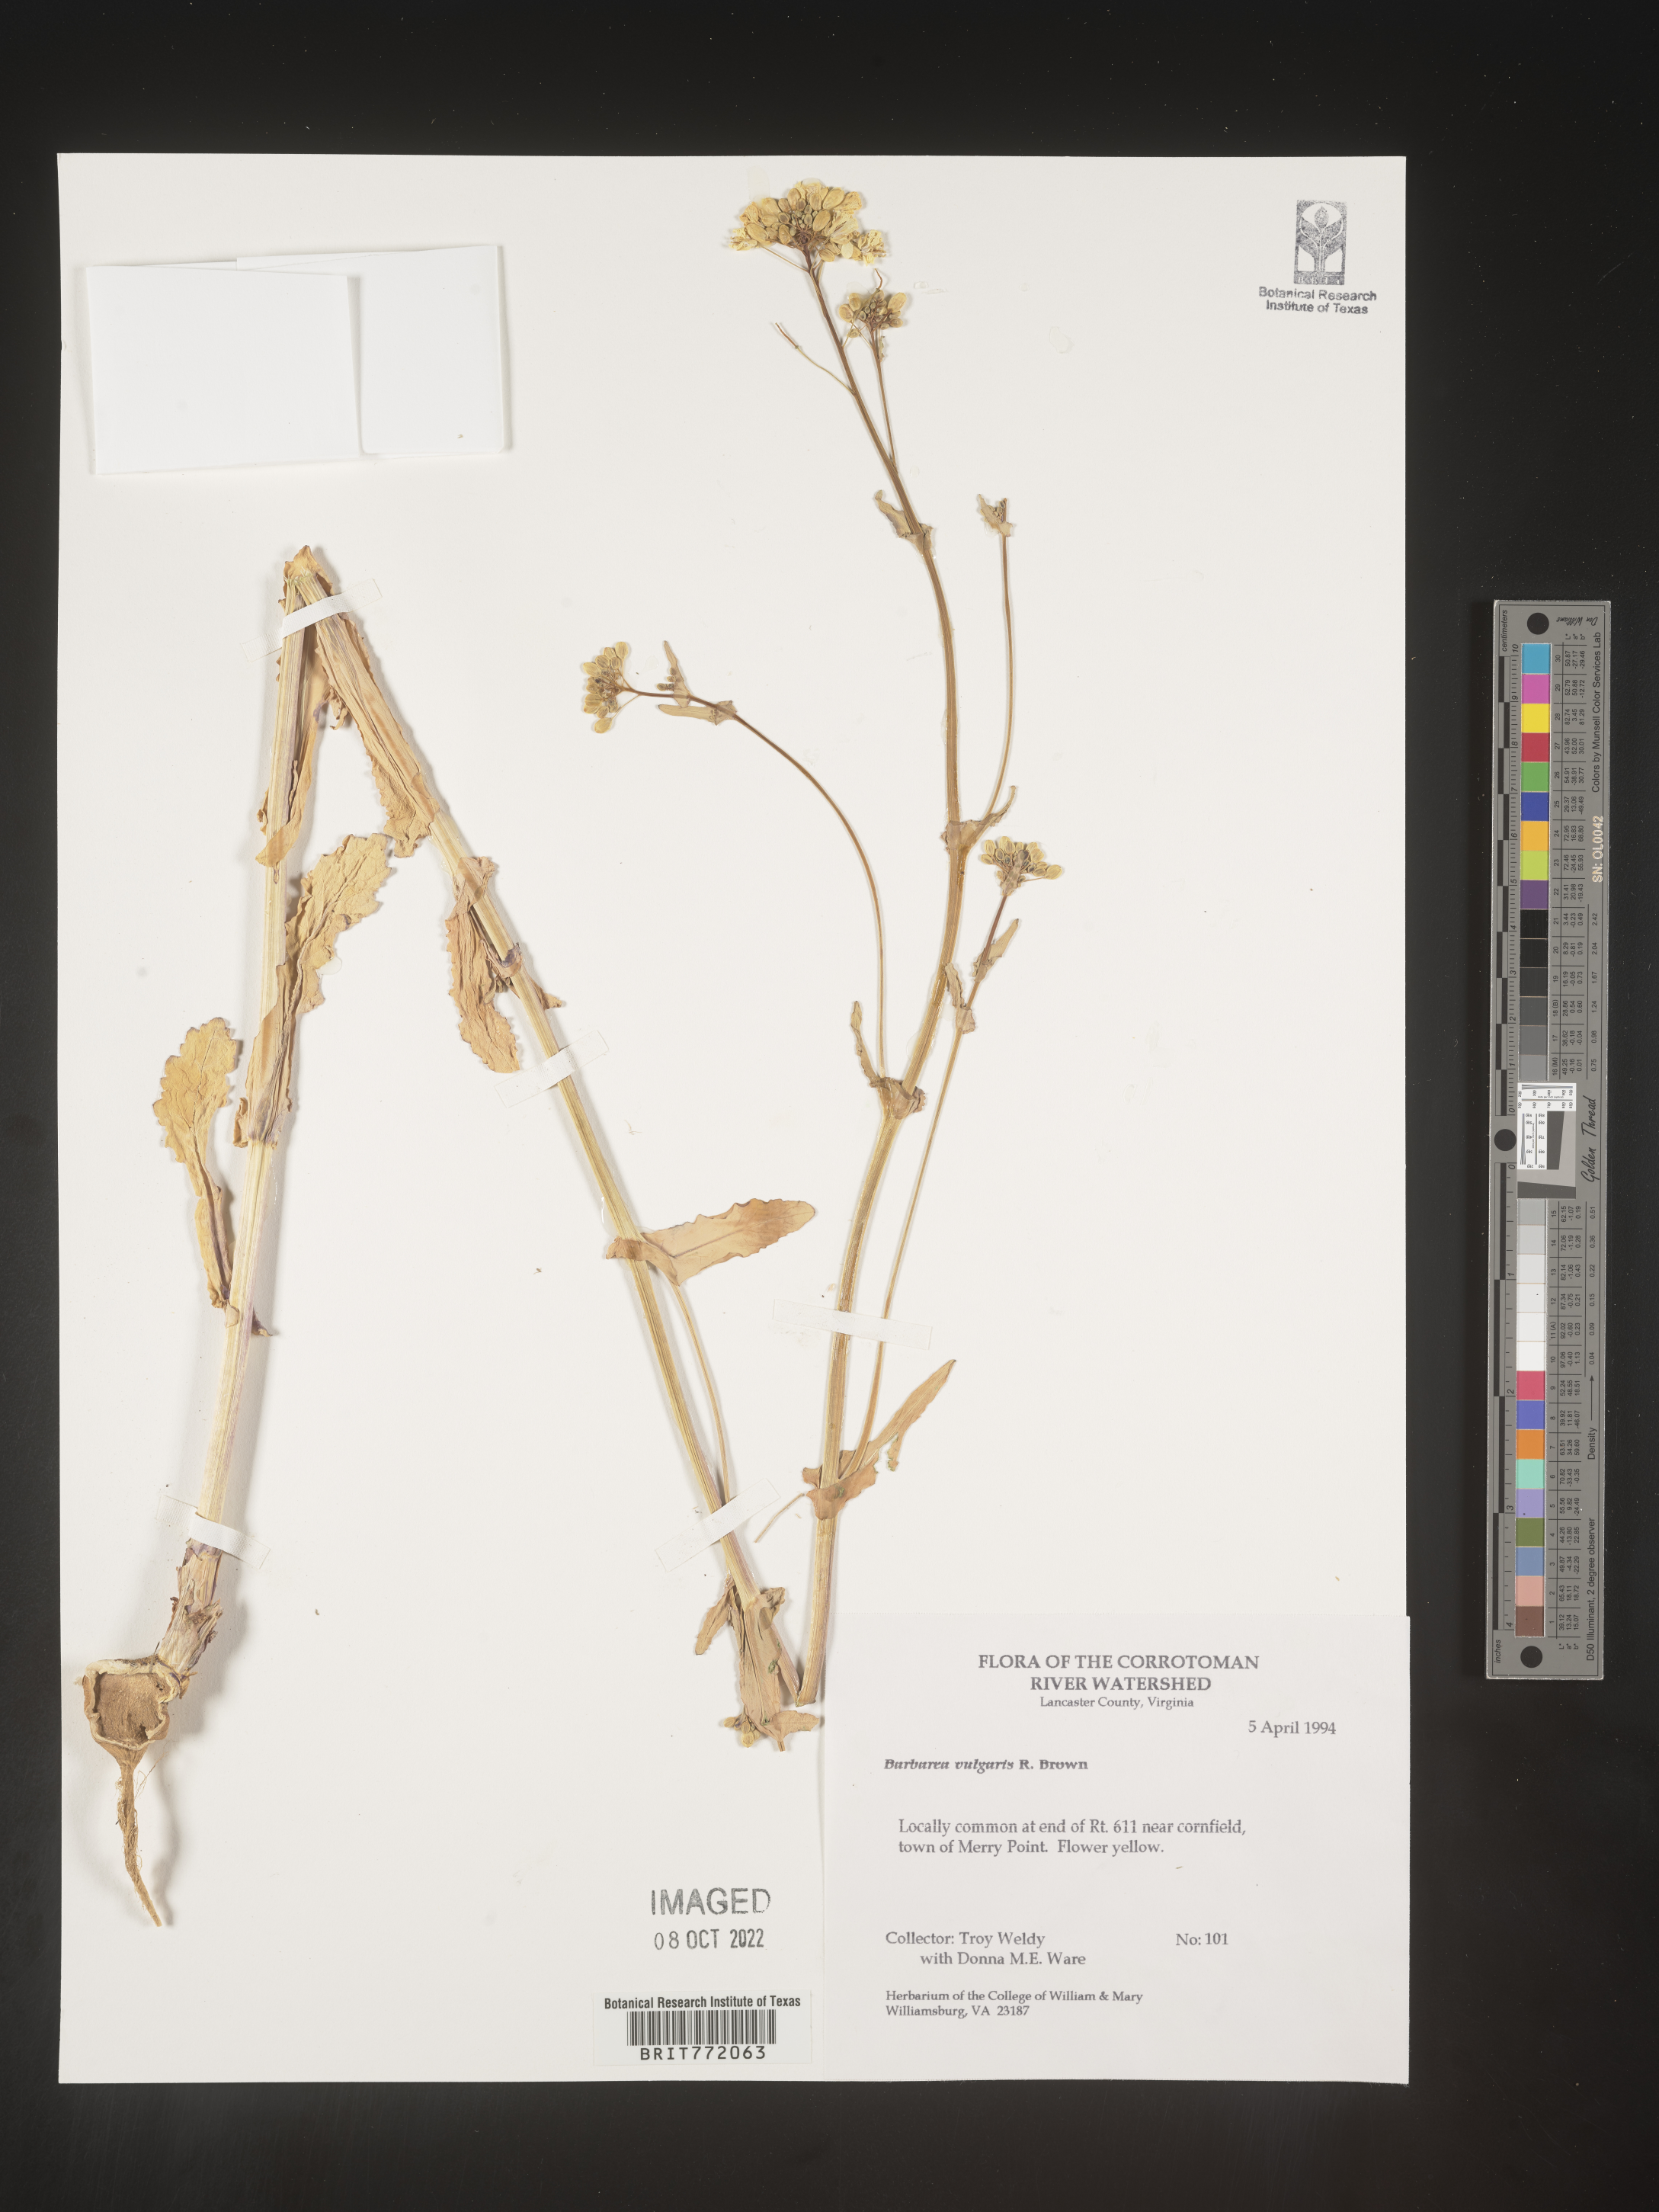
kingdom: Plantae
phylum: Tracheophyta
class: Magnoliopsida
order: Brassicales
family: Brassicaceae
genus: Barbarea
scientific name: Barbarea vulgaris
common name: Cressy-greens
